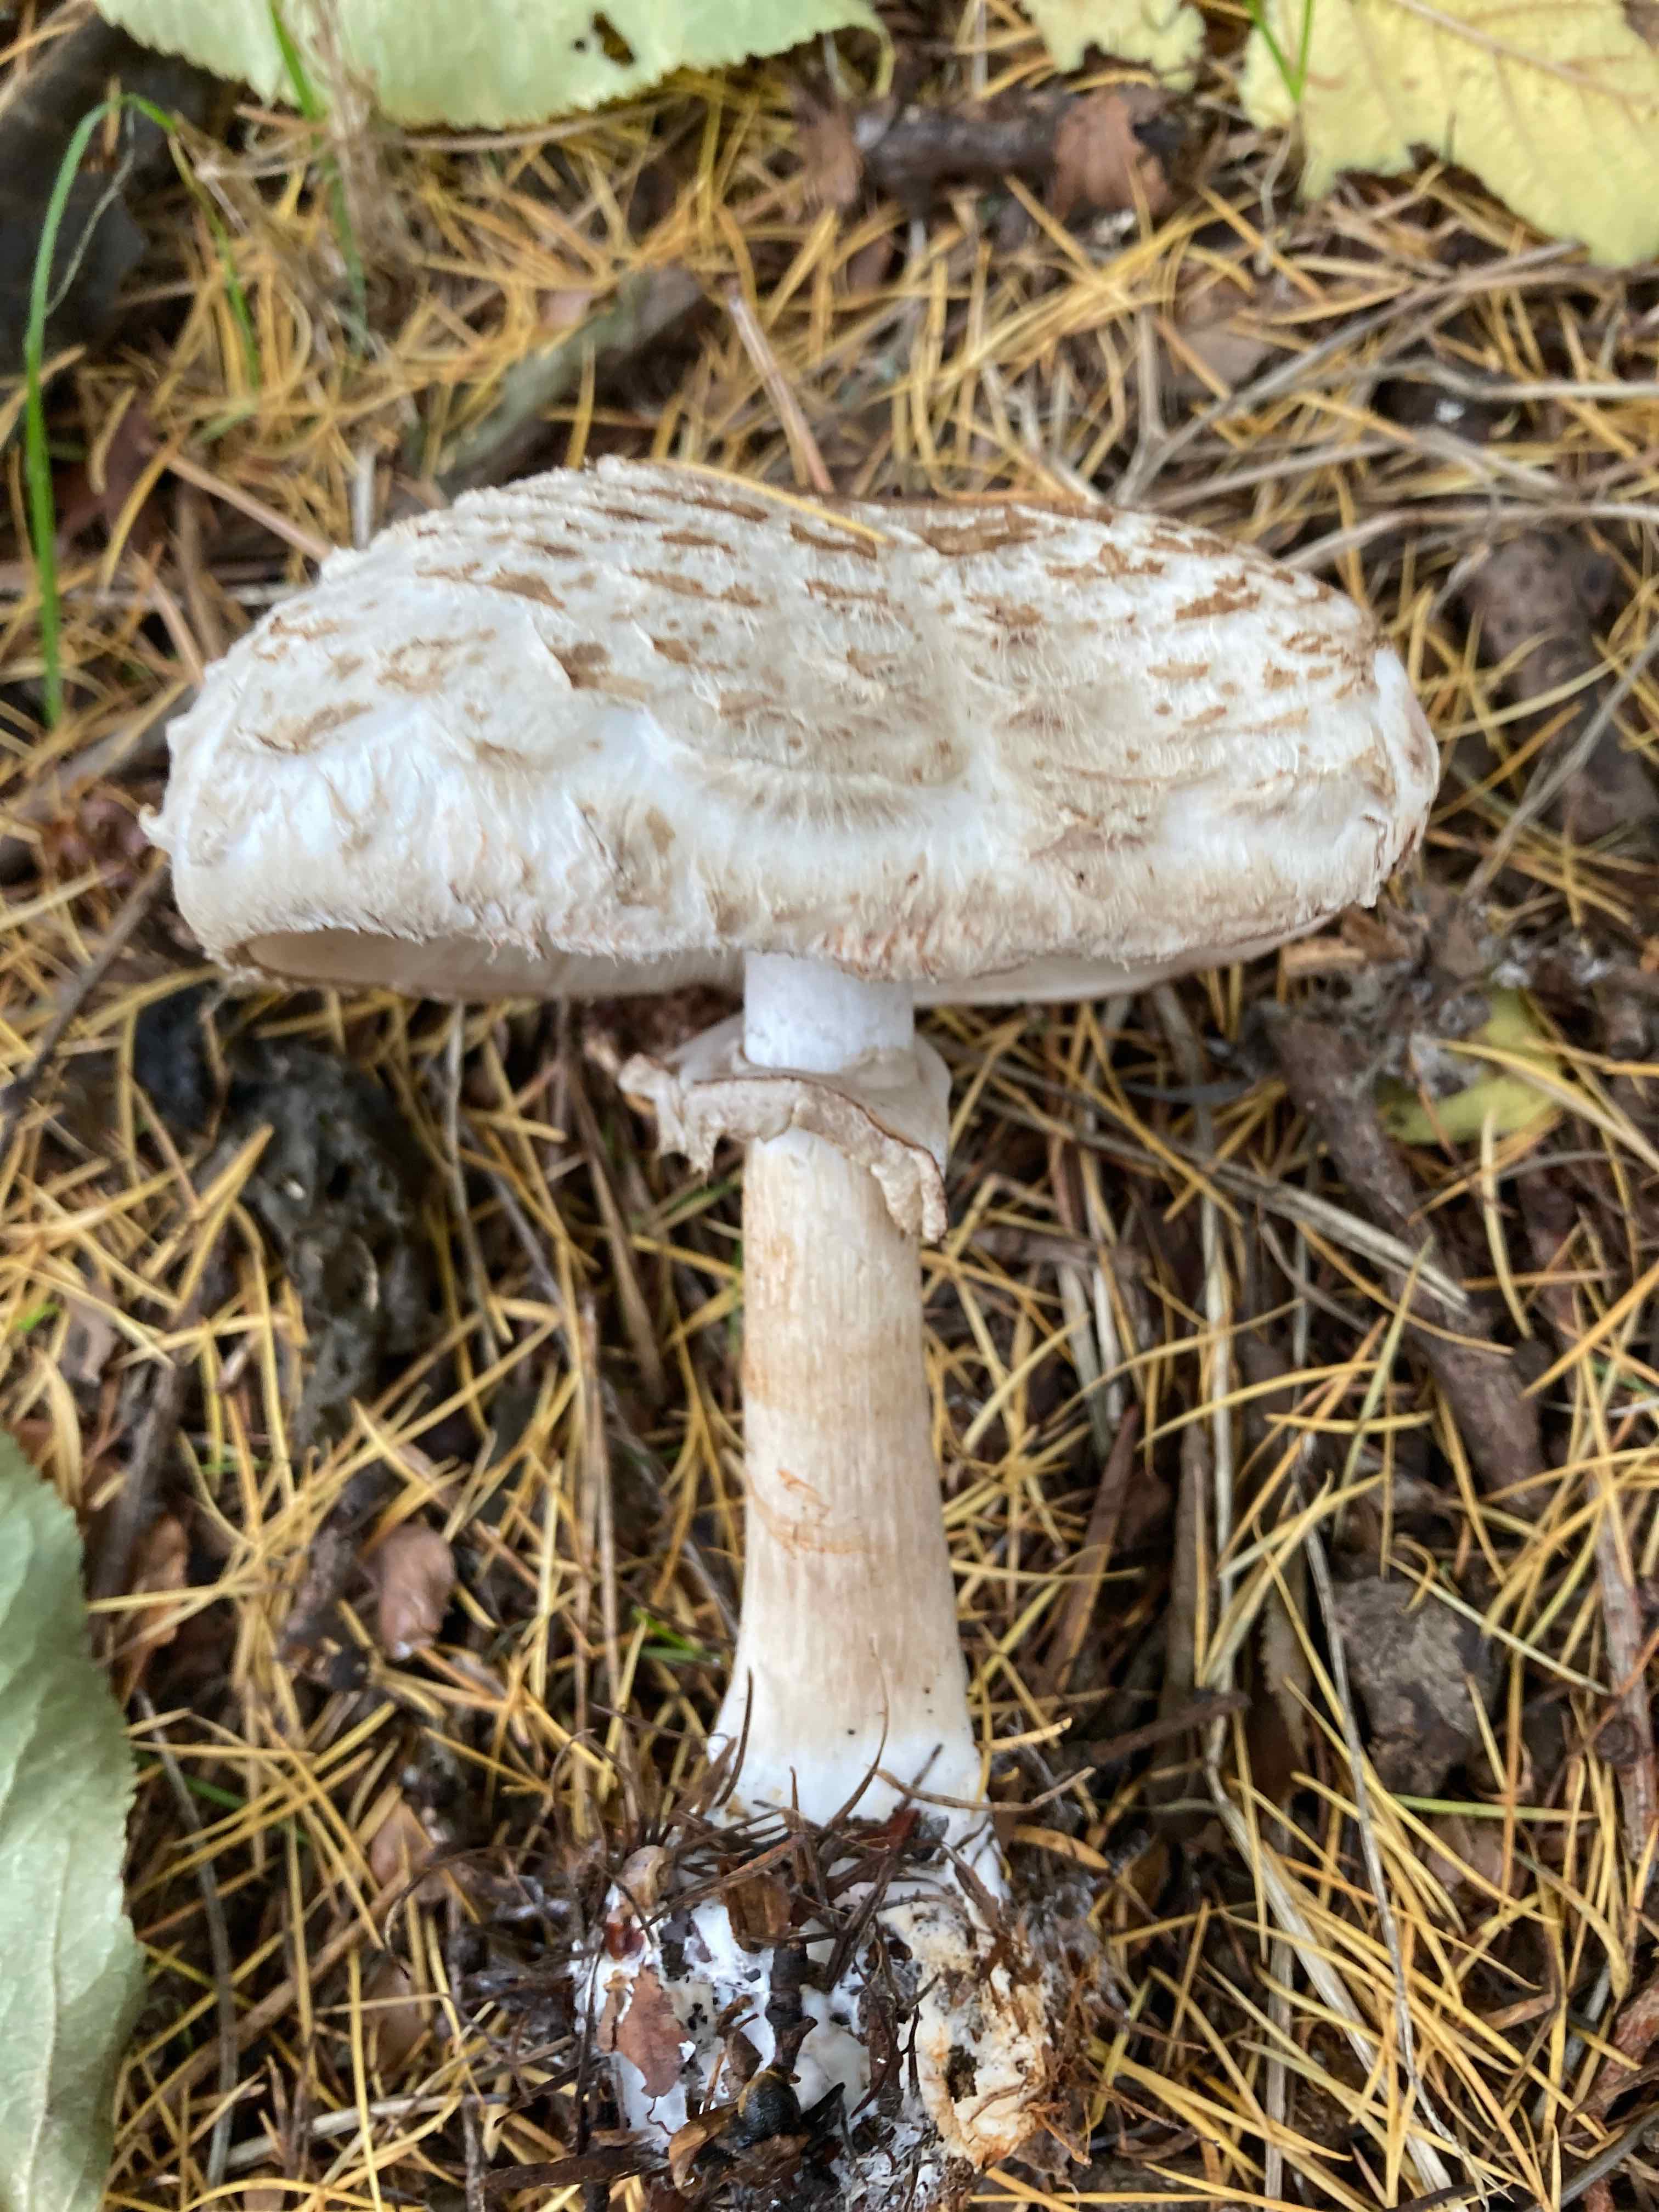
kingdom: Fungi
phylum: Basidiomycota
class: Agaricomycetes
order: Agaricales
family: Agaricaceae
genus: Chlorophyllum
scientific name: Chlorophyllum rhacodes
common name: ægte rabarberhat
